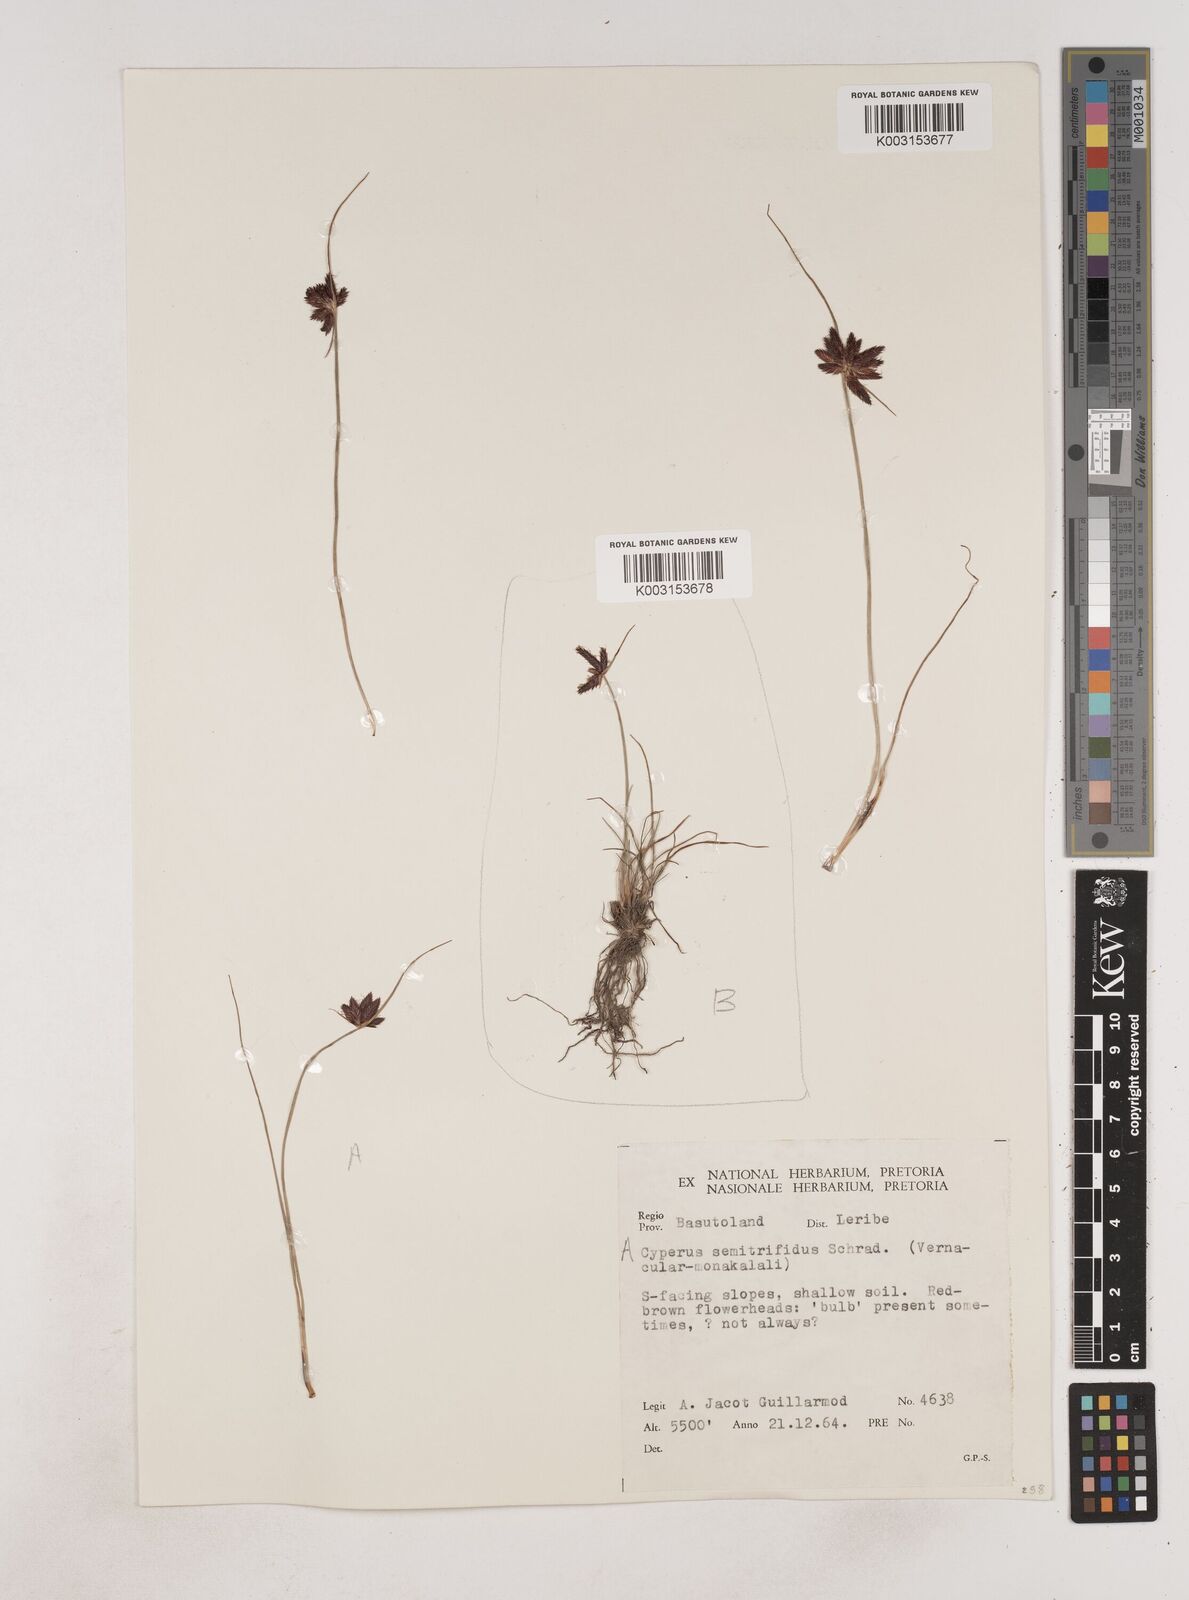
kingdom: Plantae
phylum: Tracheophyta
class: Liliopsida
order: Poales
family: Cyperaceae
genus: Cyperus
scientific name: Cyperus semitrifidus
